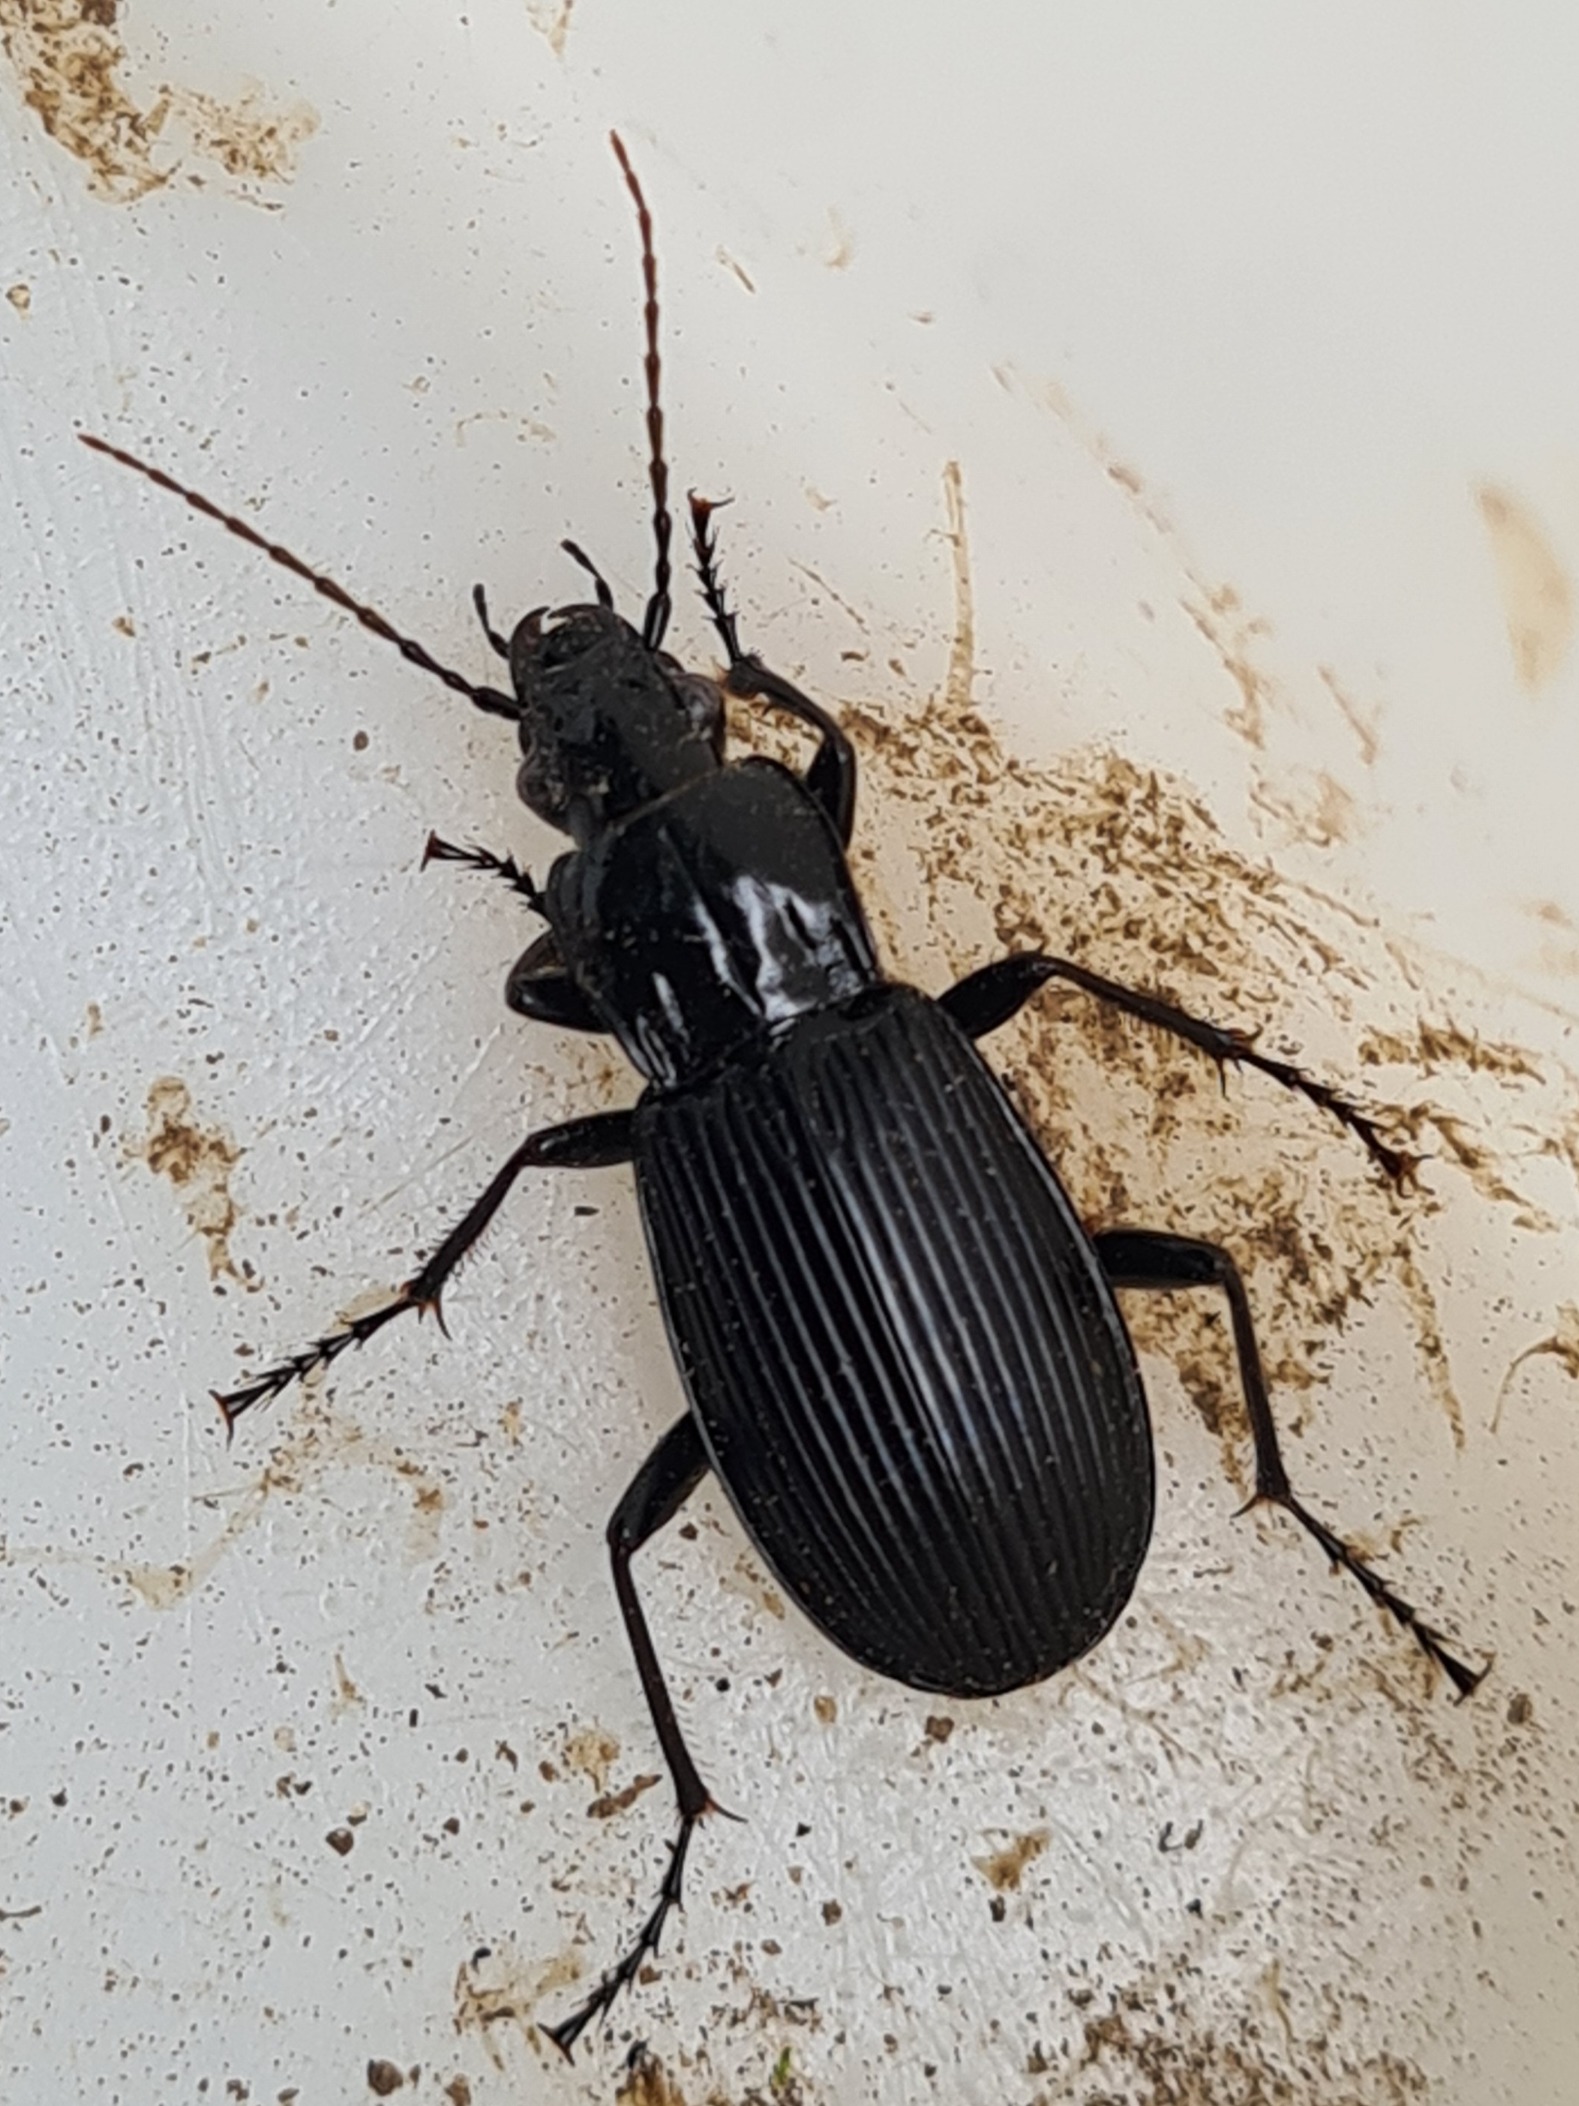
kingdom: Animalia
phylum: Arthropoda
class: Insecta
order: Coleoptera
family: Carabidae
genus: Pterostichus
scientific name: Pterostichus niger
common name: Skovjordløber
